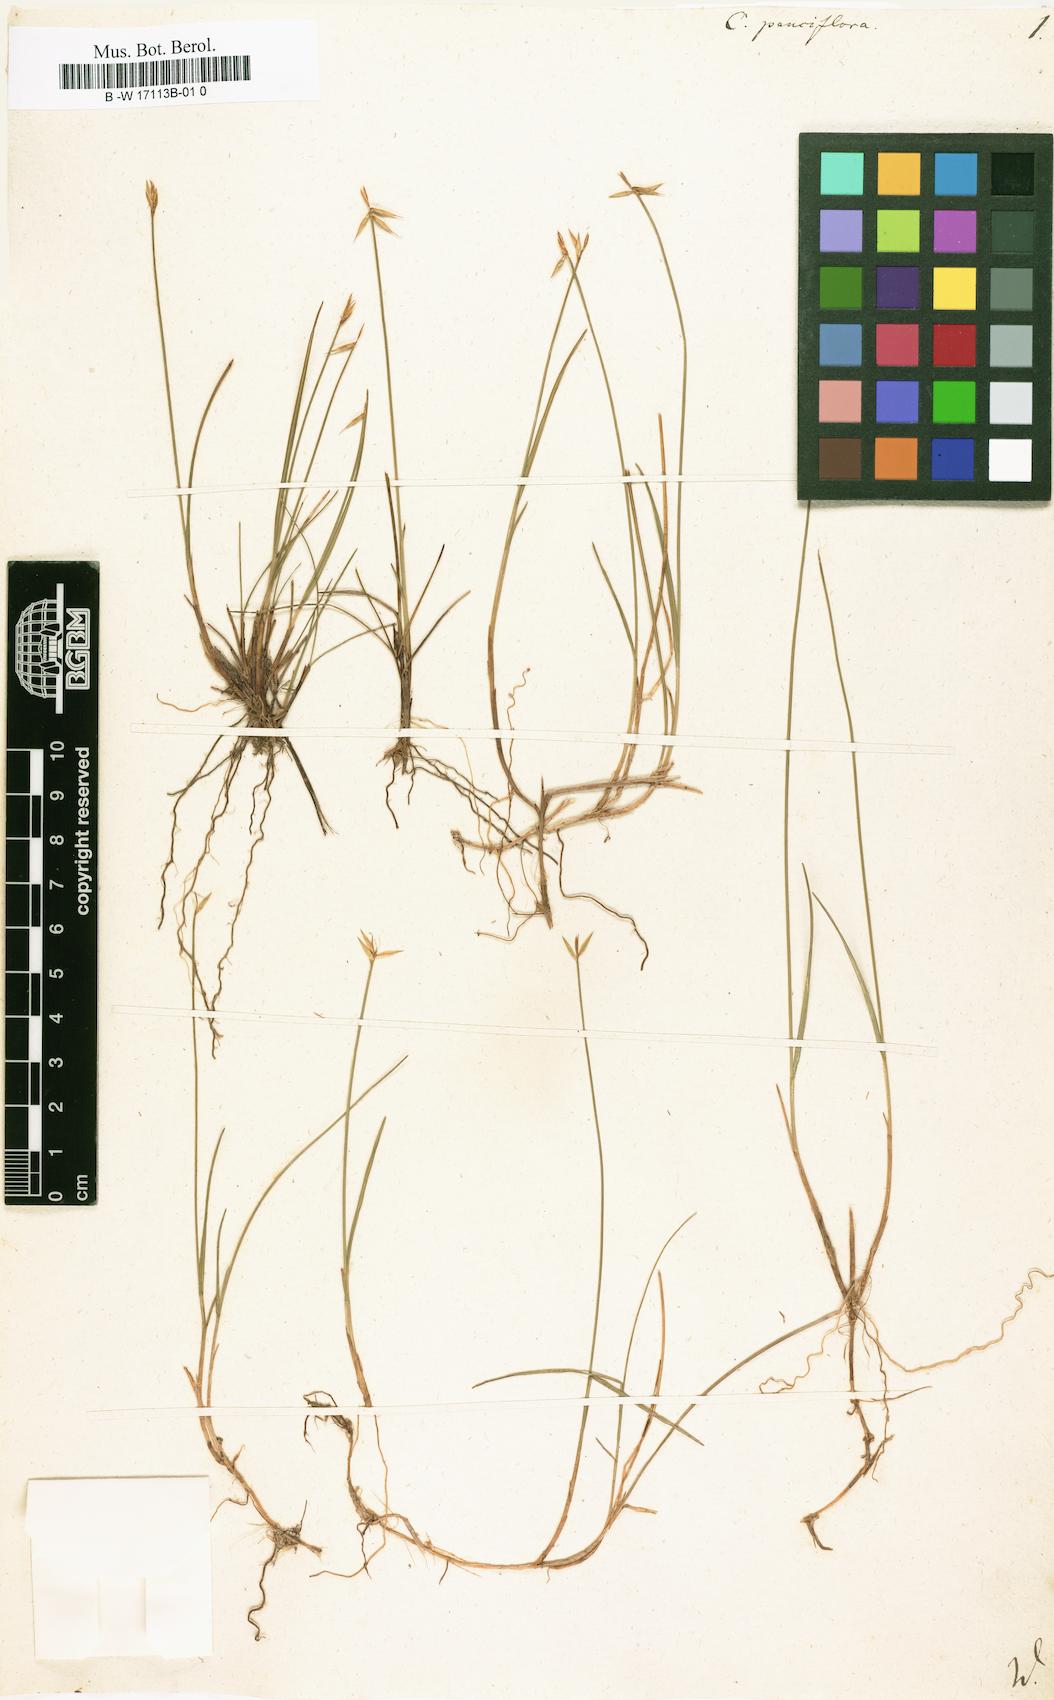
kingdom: Plantae
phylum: Tracheophyta
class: Liliopsida
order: Poales
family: Cyperaceae
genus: Carex
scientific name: Carex pauciflora
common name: Few-flowered sedge
